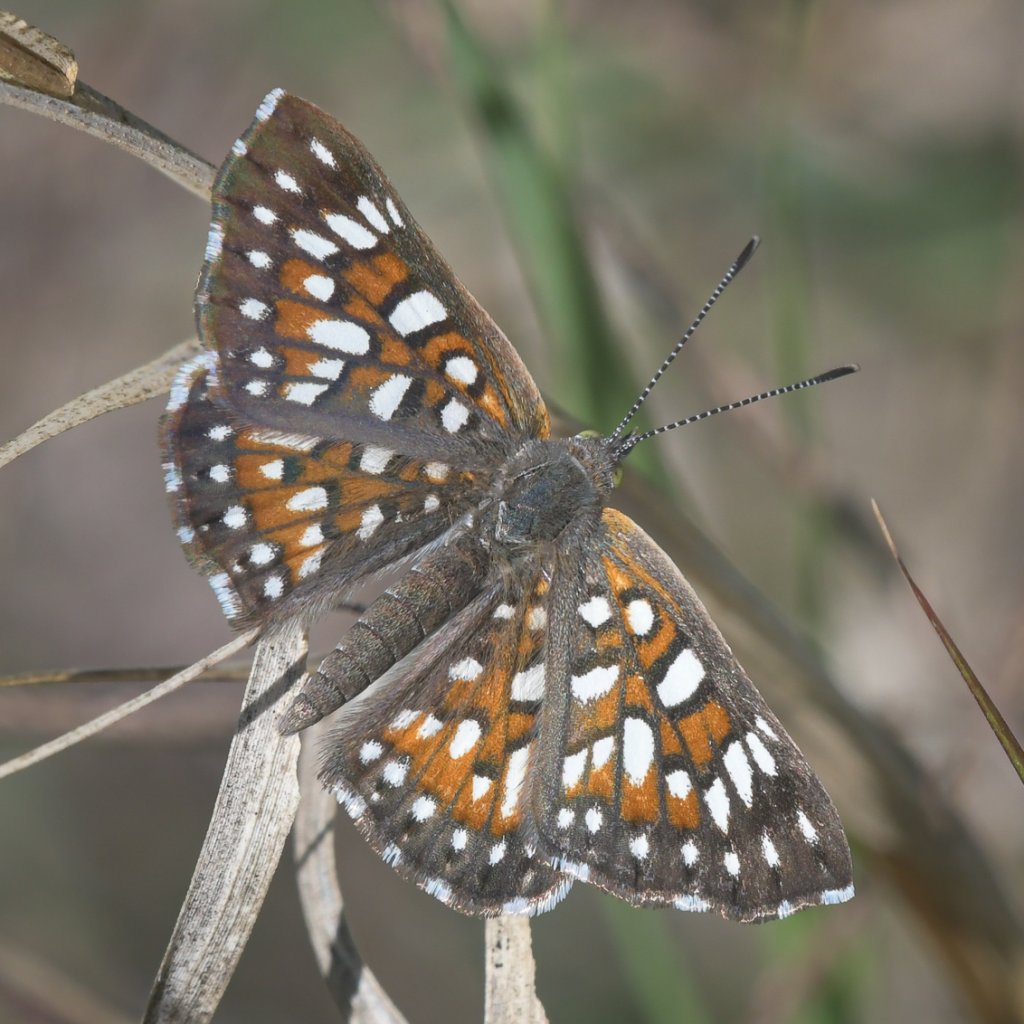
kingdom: Animalia
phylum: Arthropoda
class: Insecta
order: Lepidoptera
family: Riodinidae
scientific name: Riodinidae
